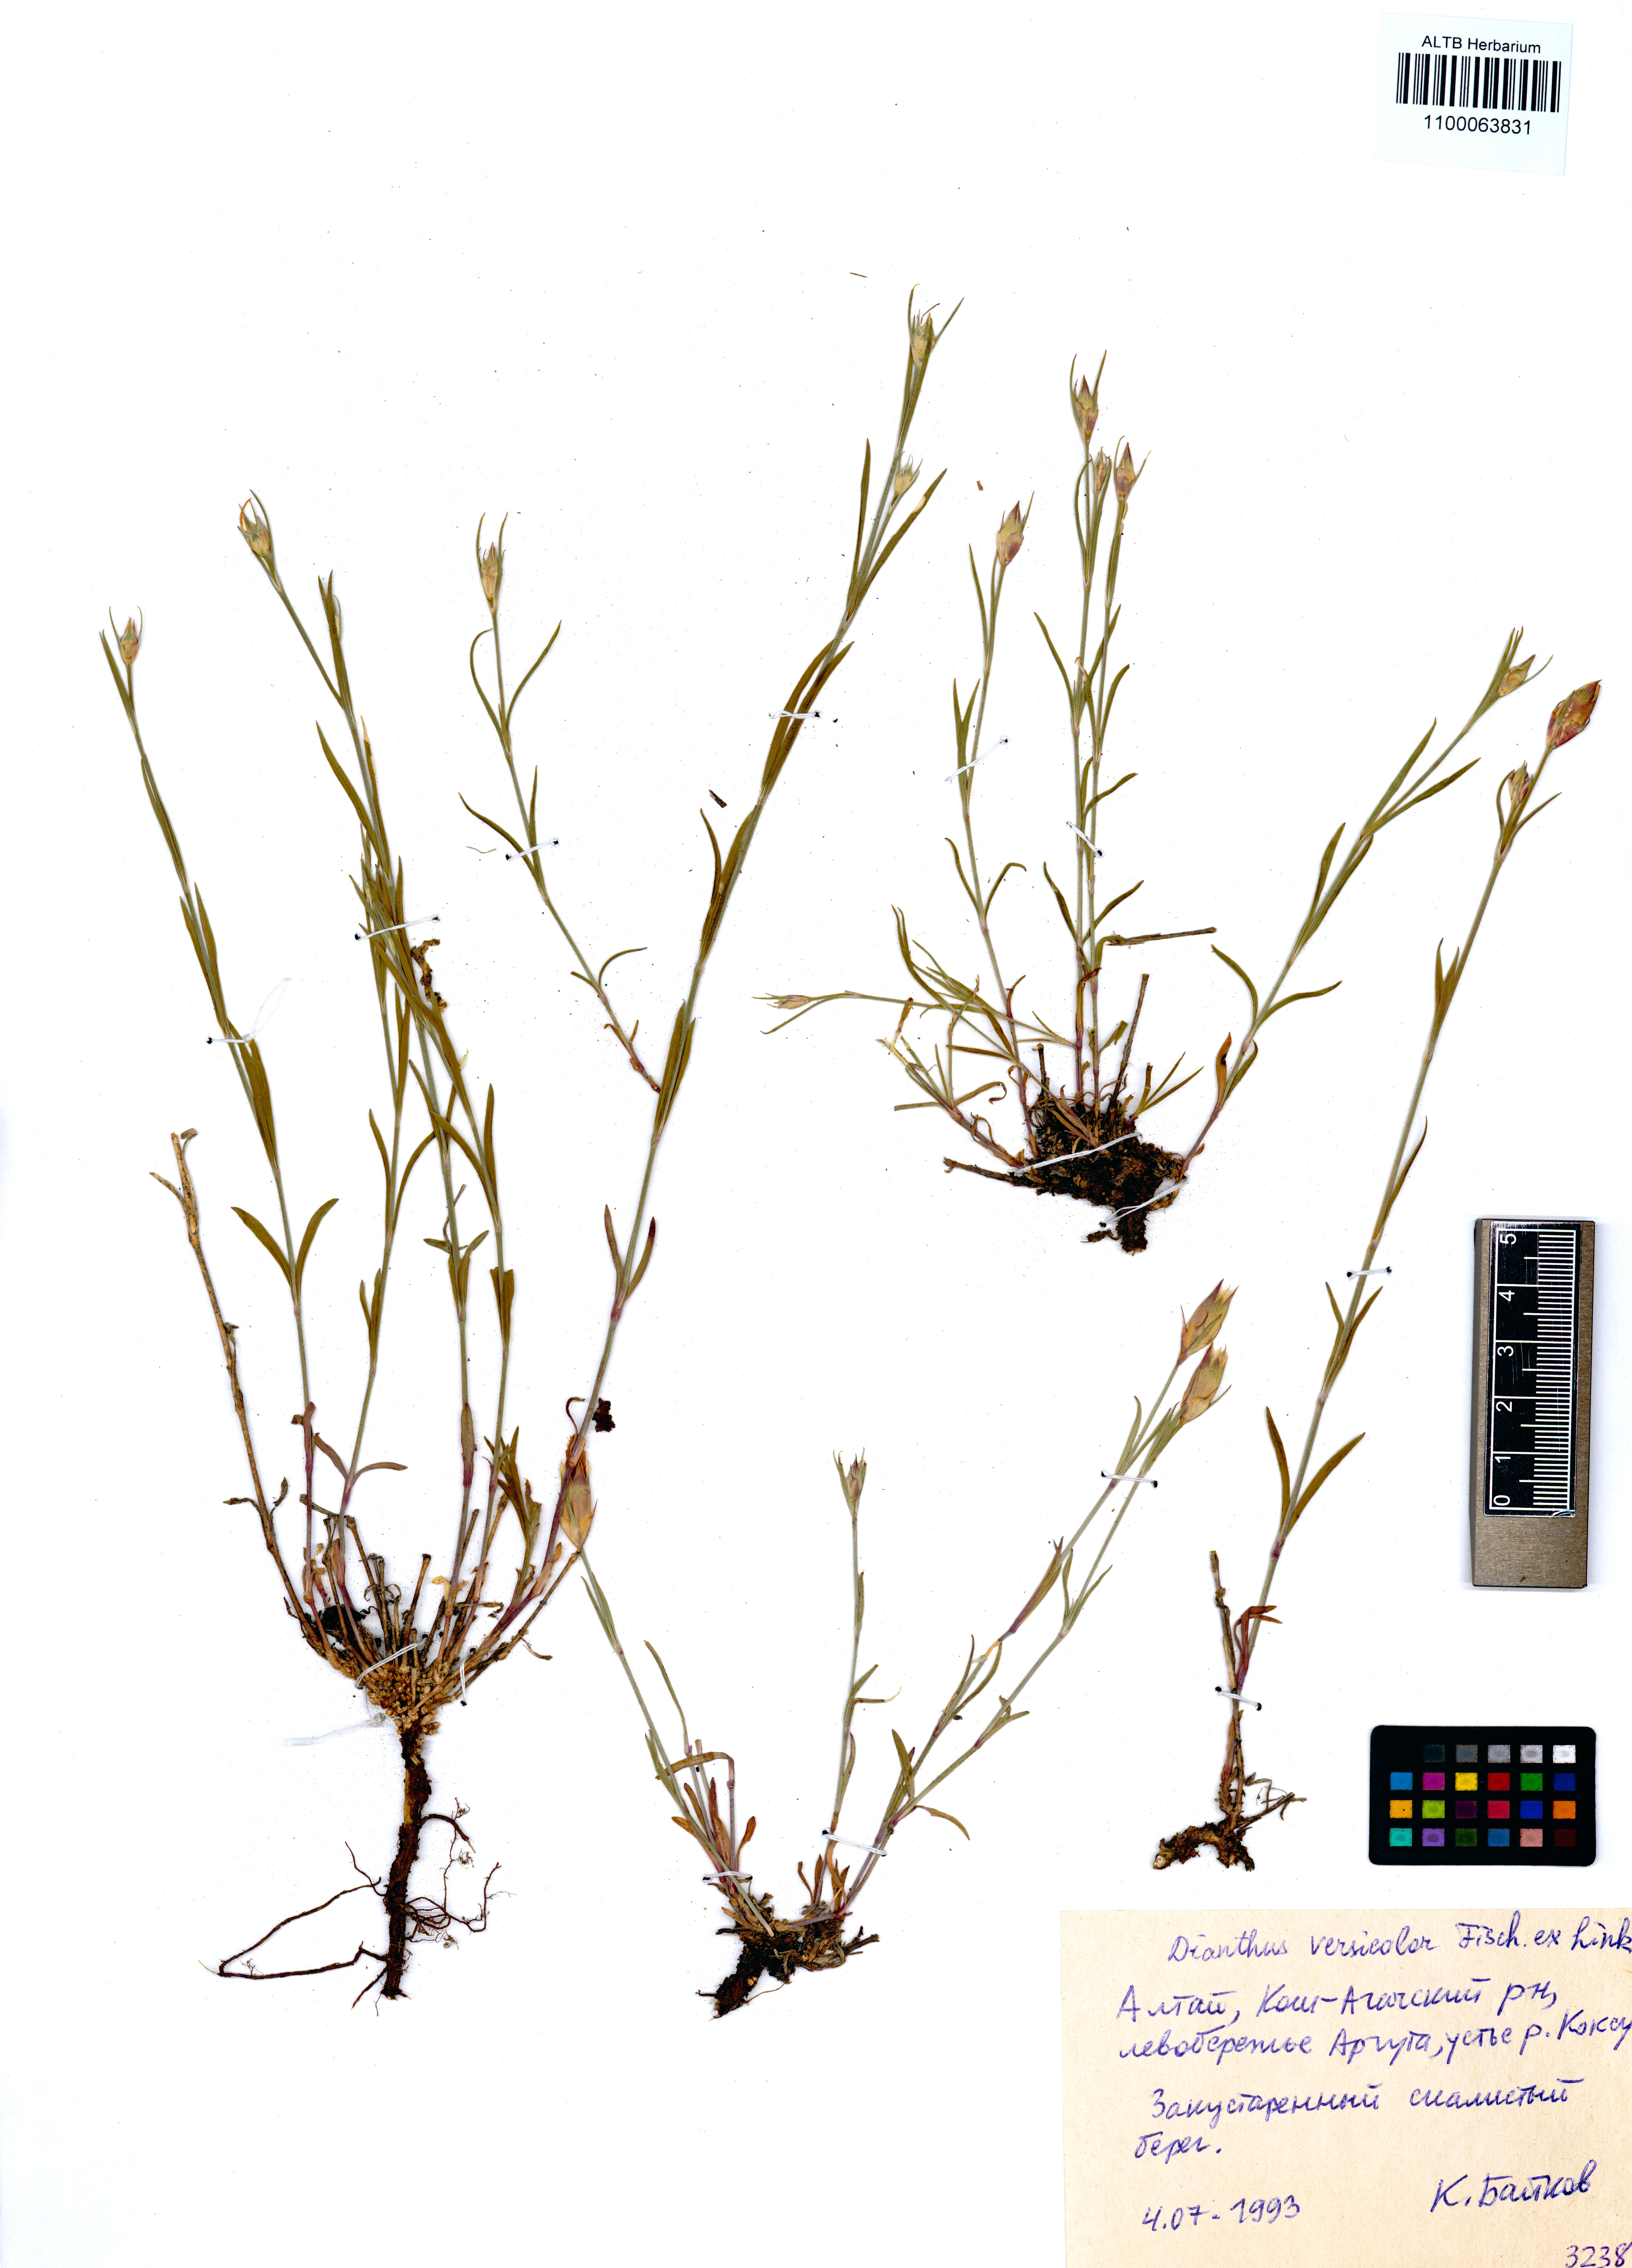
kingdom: Plantae
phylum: Tracheophyta
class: Magnoliopsida
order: Caryophyllales
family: Caryophyllaceae
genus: Dianthus
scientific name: Dianthus chinensis
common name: Rainbow pink
